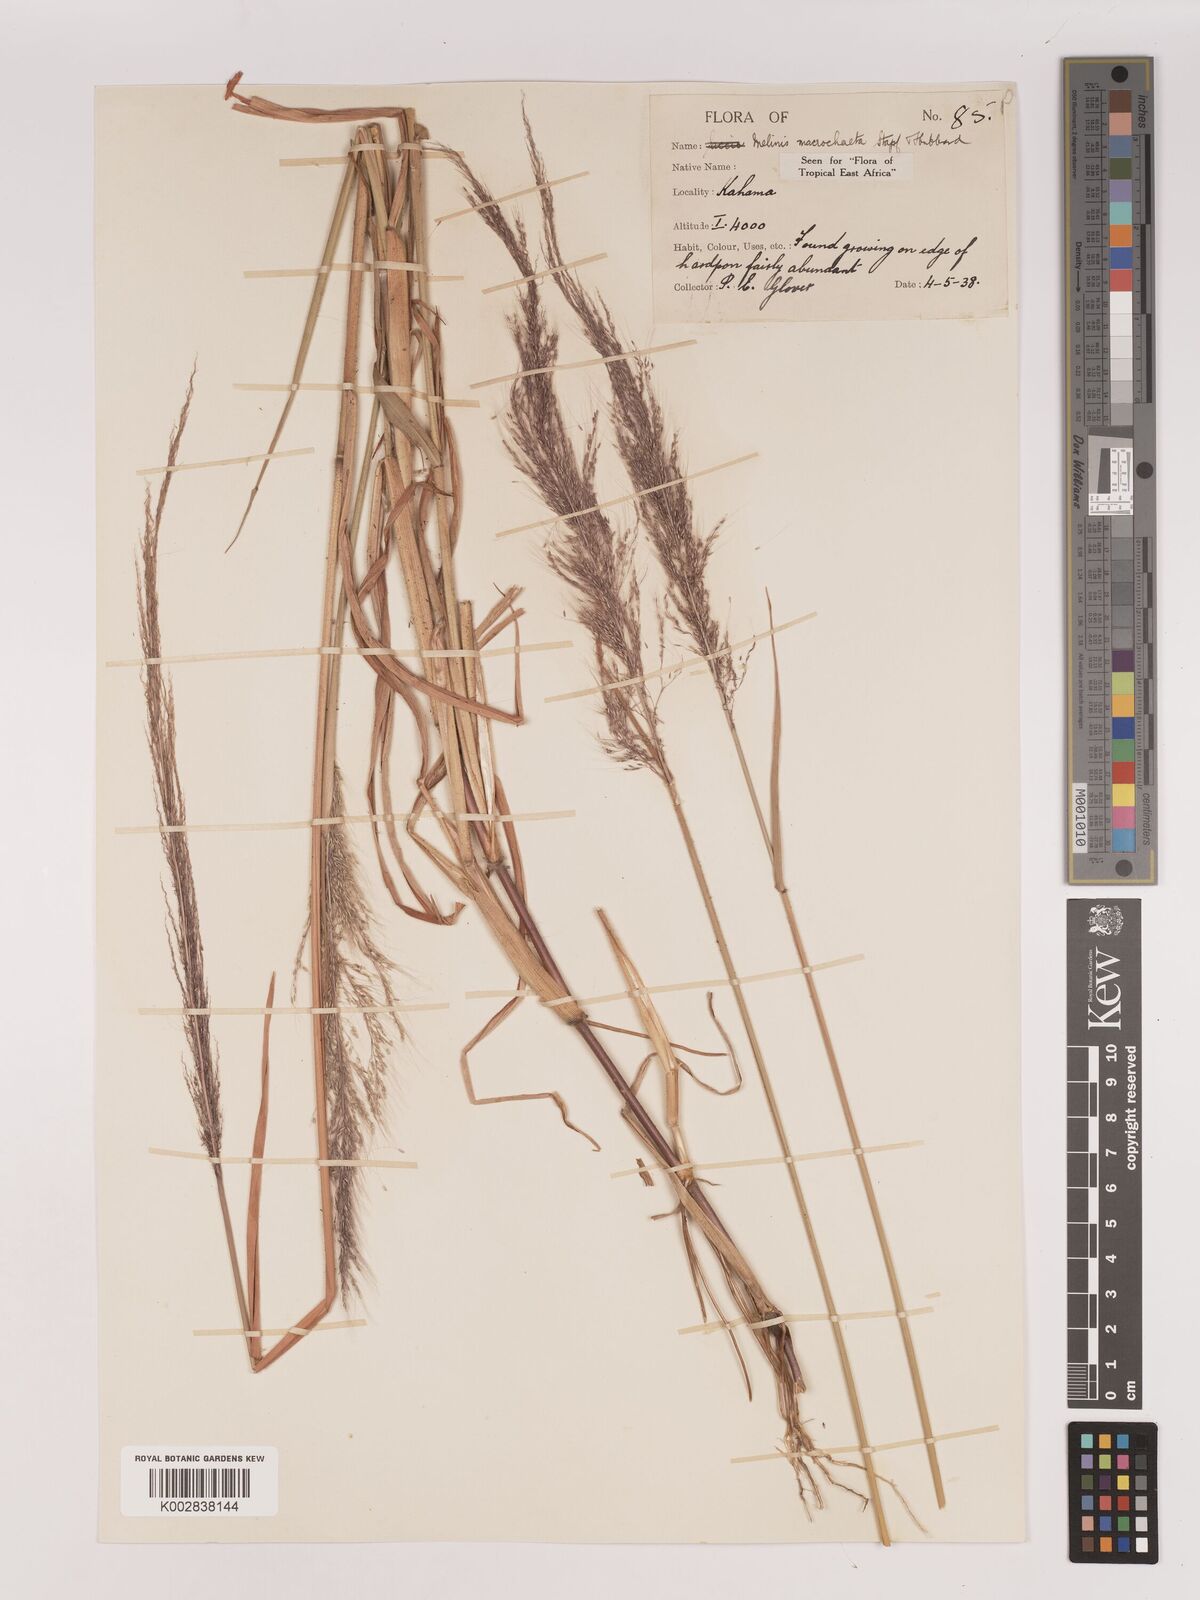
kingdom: Plantae
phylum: Tracheophyta
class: Liliopsida
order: Poales
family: Poaceae
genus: Melinis
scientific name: Melinis macrochaeta
